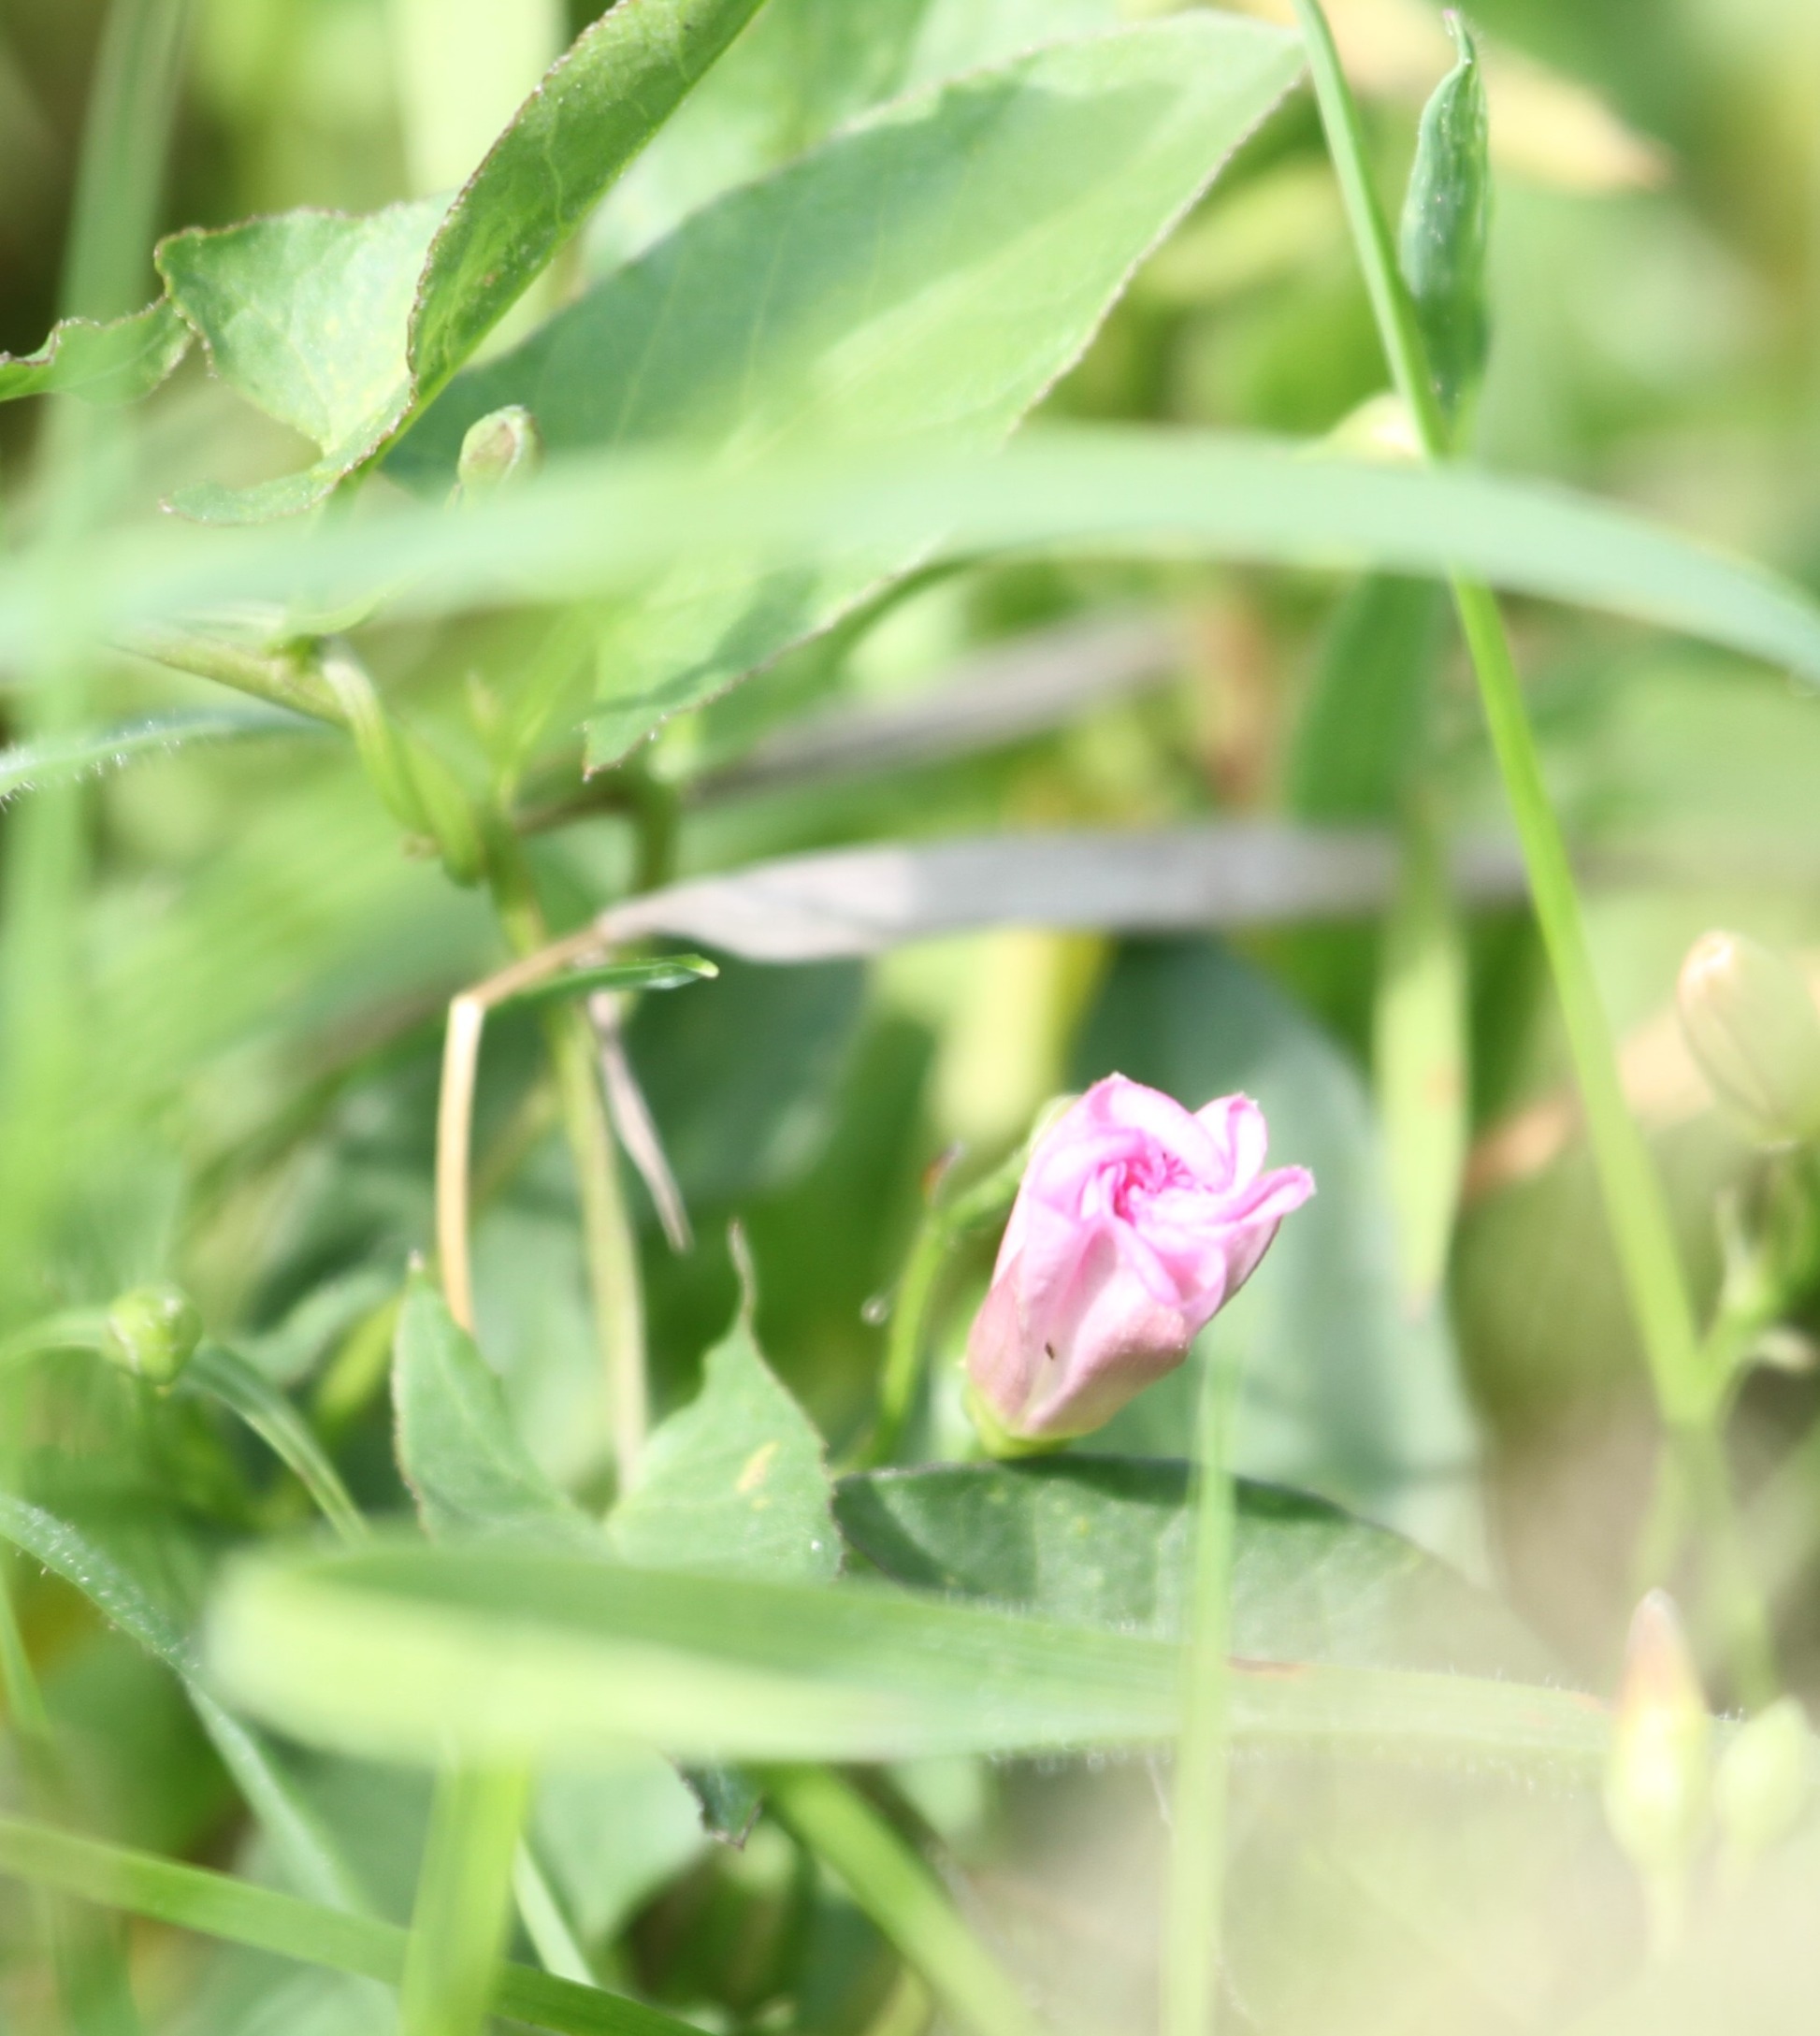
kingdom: Plantae
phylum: Tracheophyta
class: Magnoliopsida
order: Solanales
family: Convolvulaceae
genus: Convolvulus
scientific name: Convolvulus arvensis
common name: Ager-snerle
